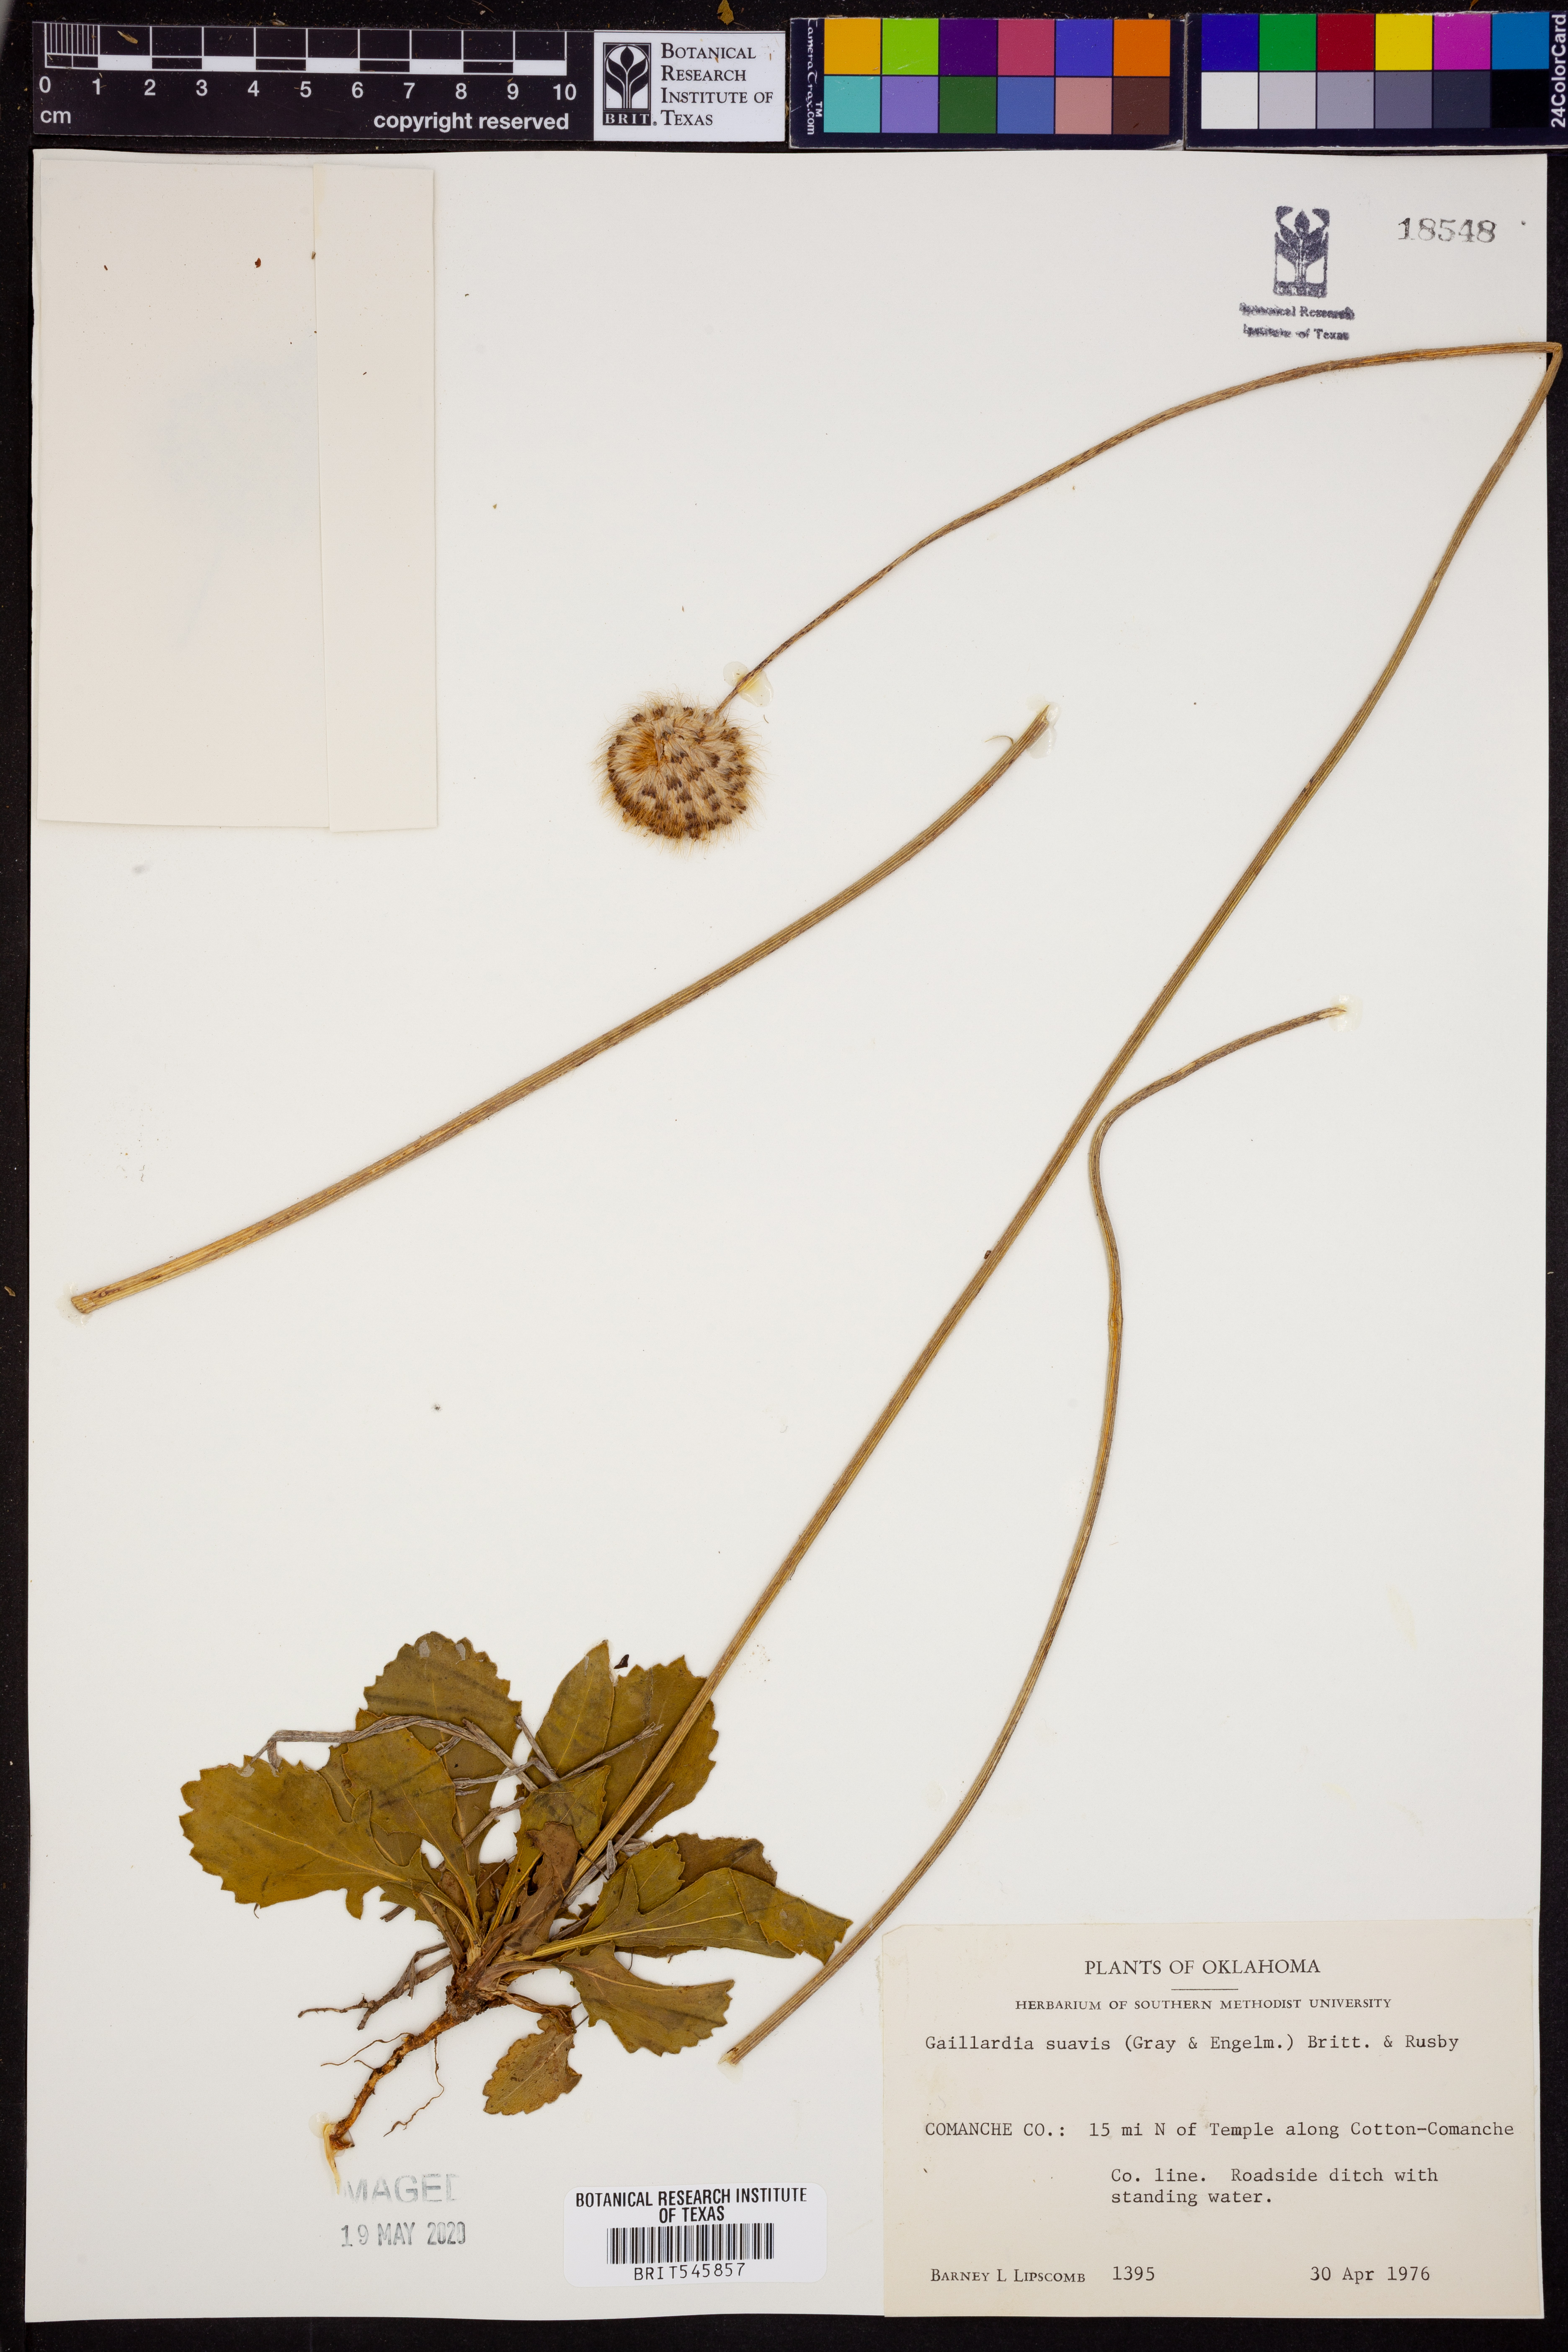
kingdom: Plantae
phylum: Tracheophyta
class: Magnoliopsida
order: Asterales
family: Asteraceae
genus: Gaillardia
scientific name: Gaillardia suavis
